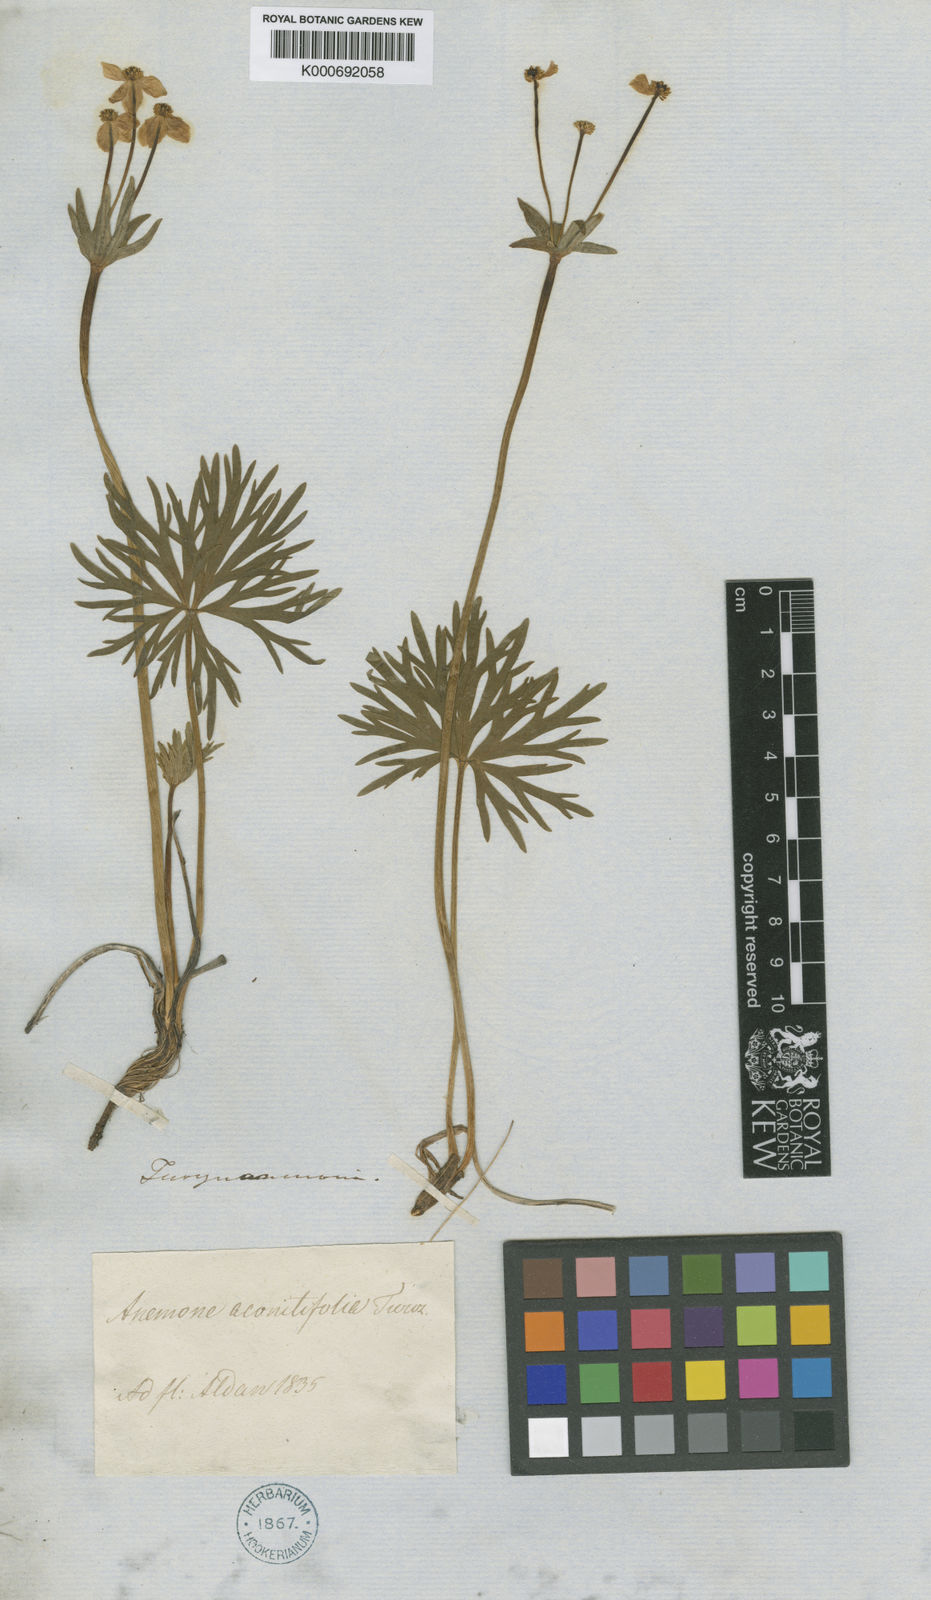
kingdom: Plantae
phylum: Tracheophyta
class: Magnoliopsida
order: Ranunculales
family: Ranunculaceae
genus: Anemonastrum
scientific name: Anemonastrum narcissiflorum
